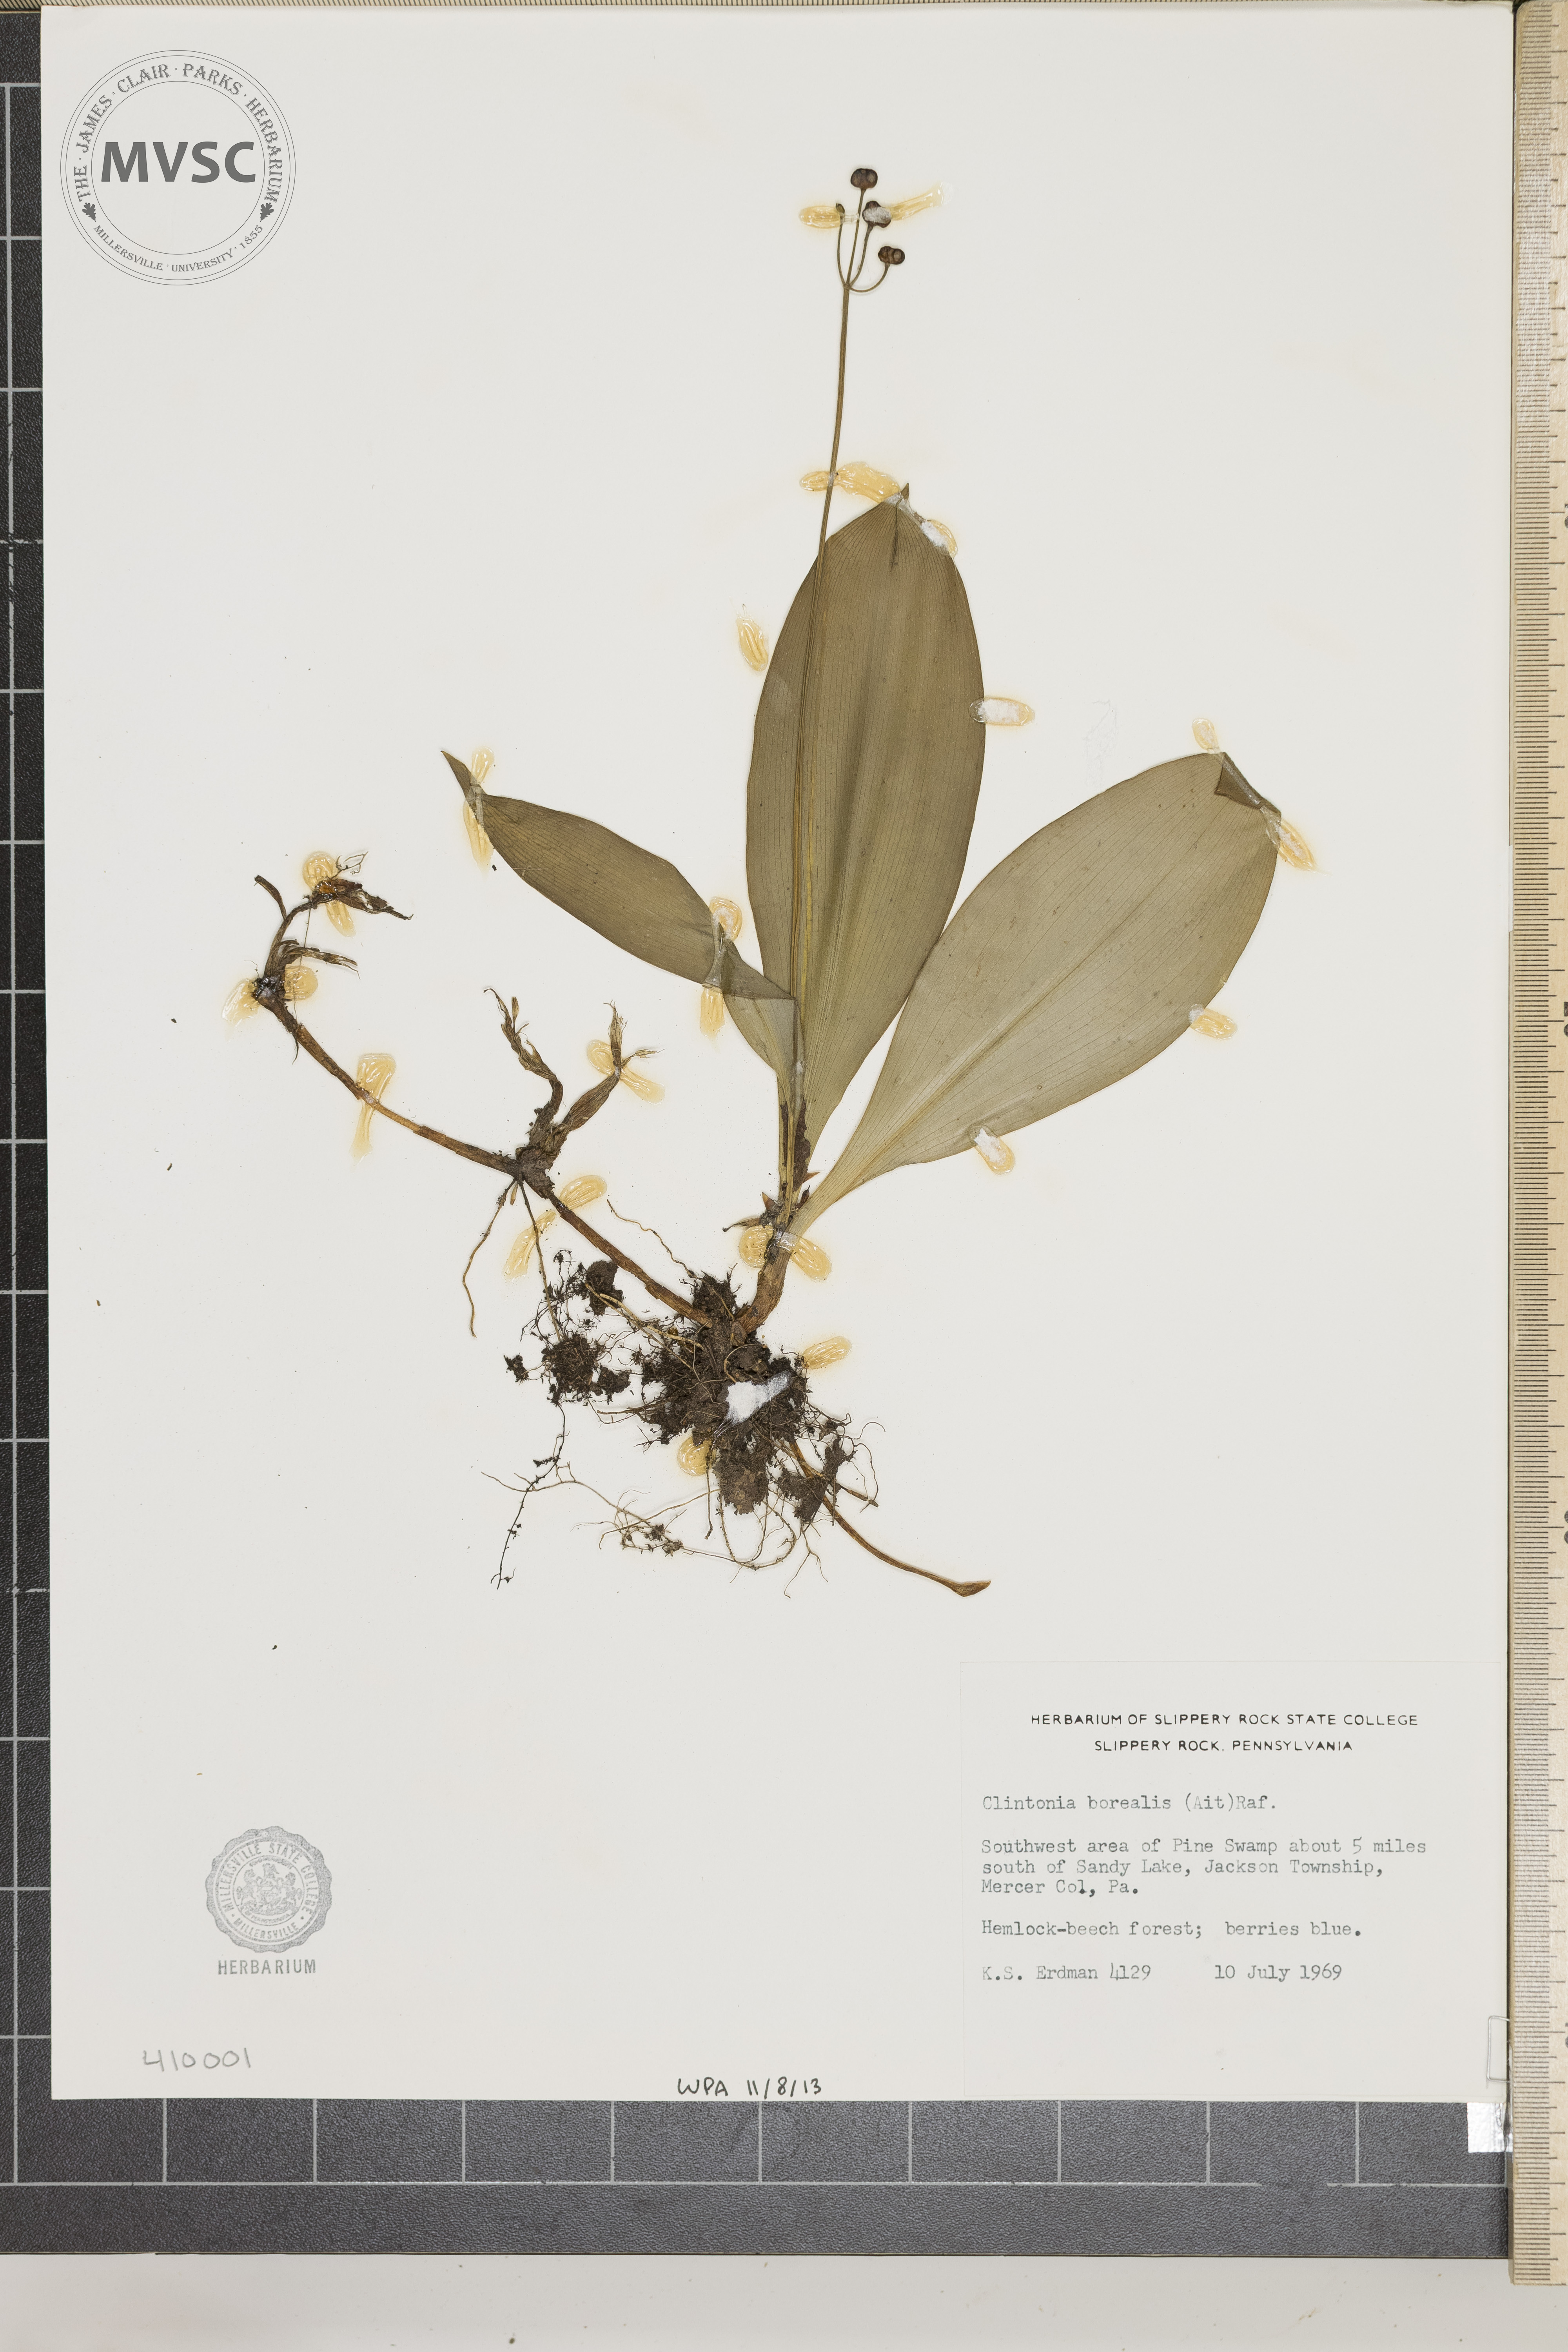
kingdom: Plantae
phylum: Tracheophyta
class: Liliopsida
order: Liliales
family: Liliaceae
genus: Clintonia
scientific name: Clintonia borealis
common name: Yellow clintonia
